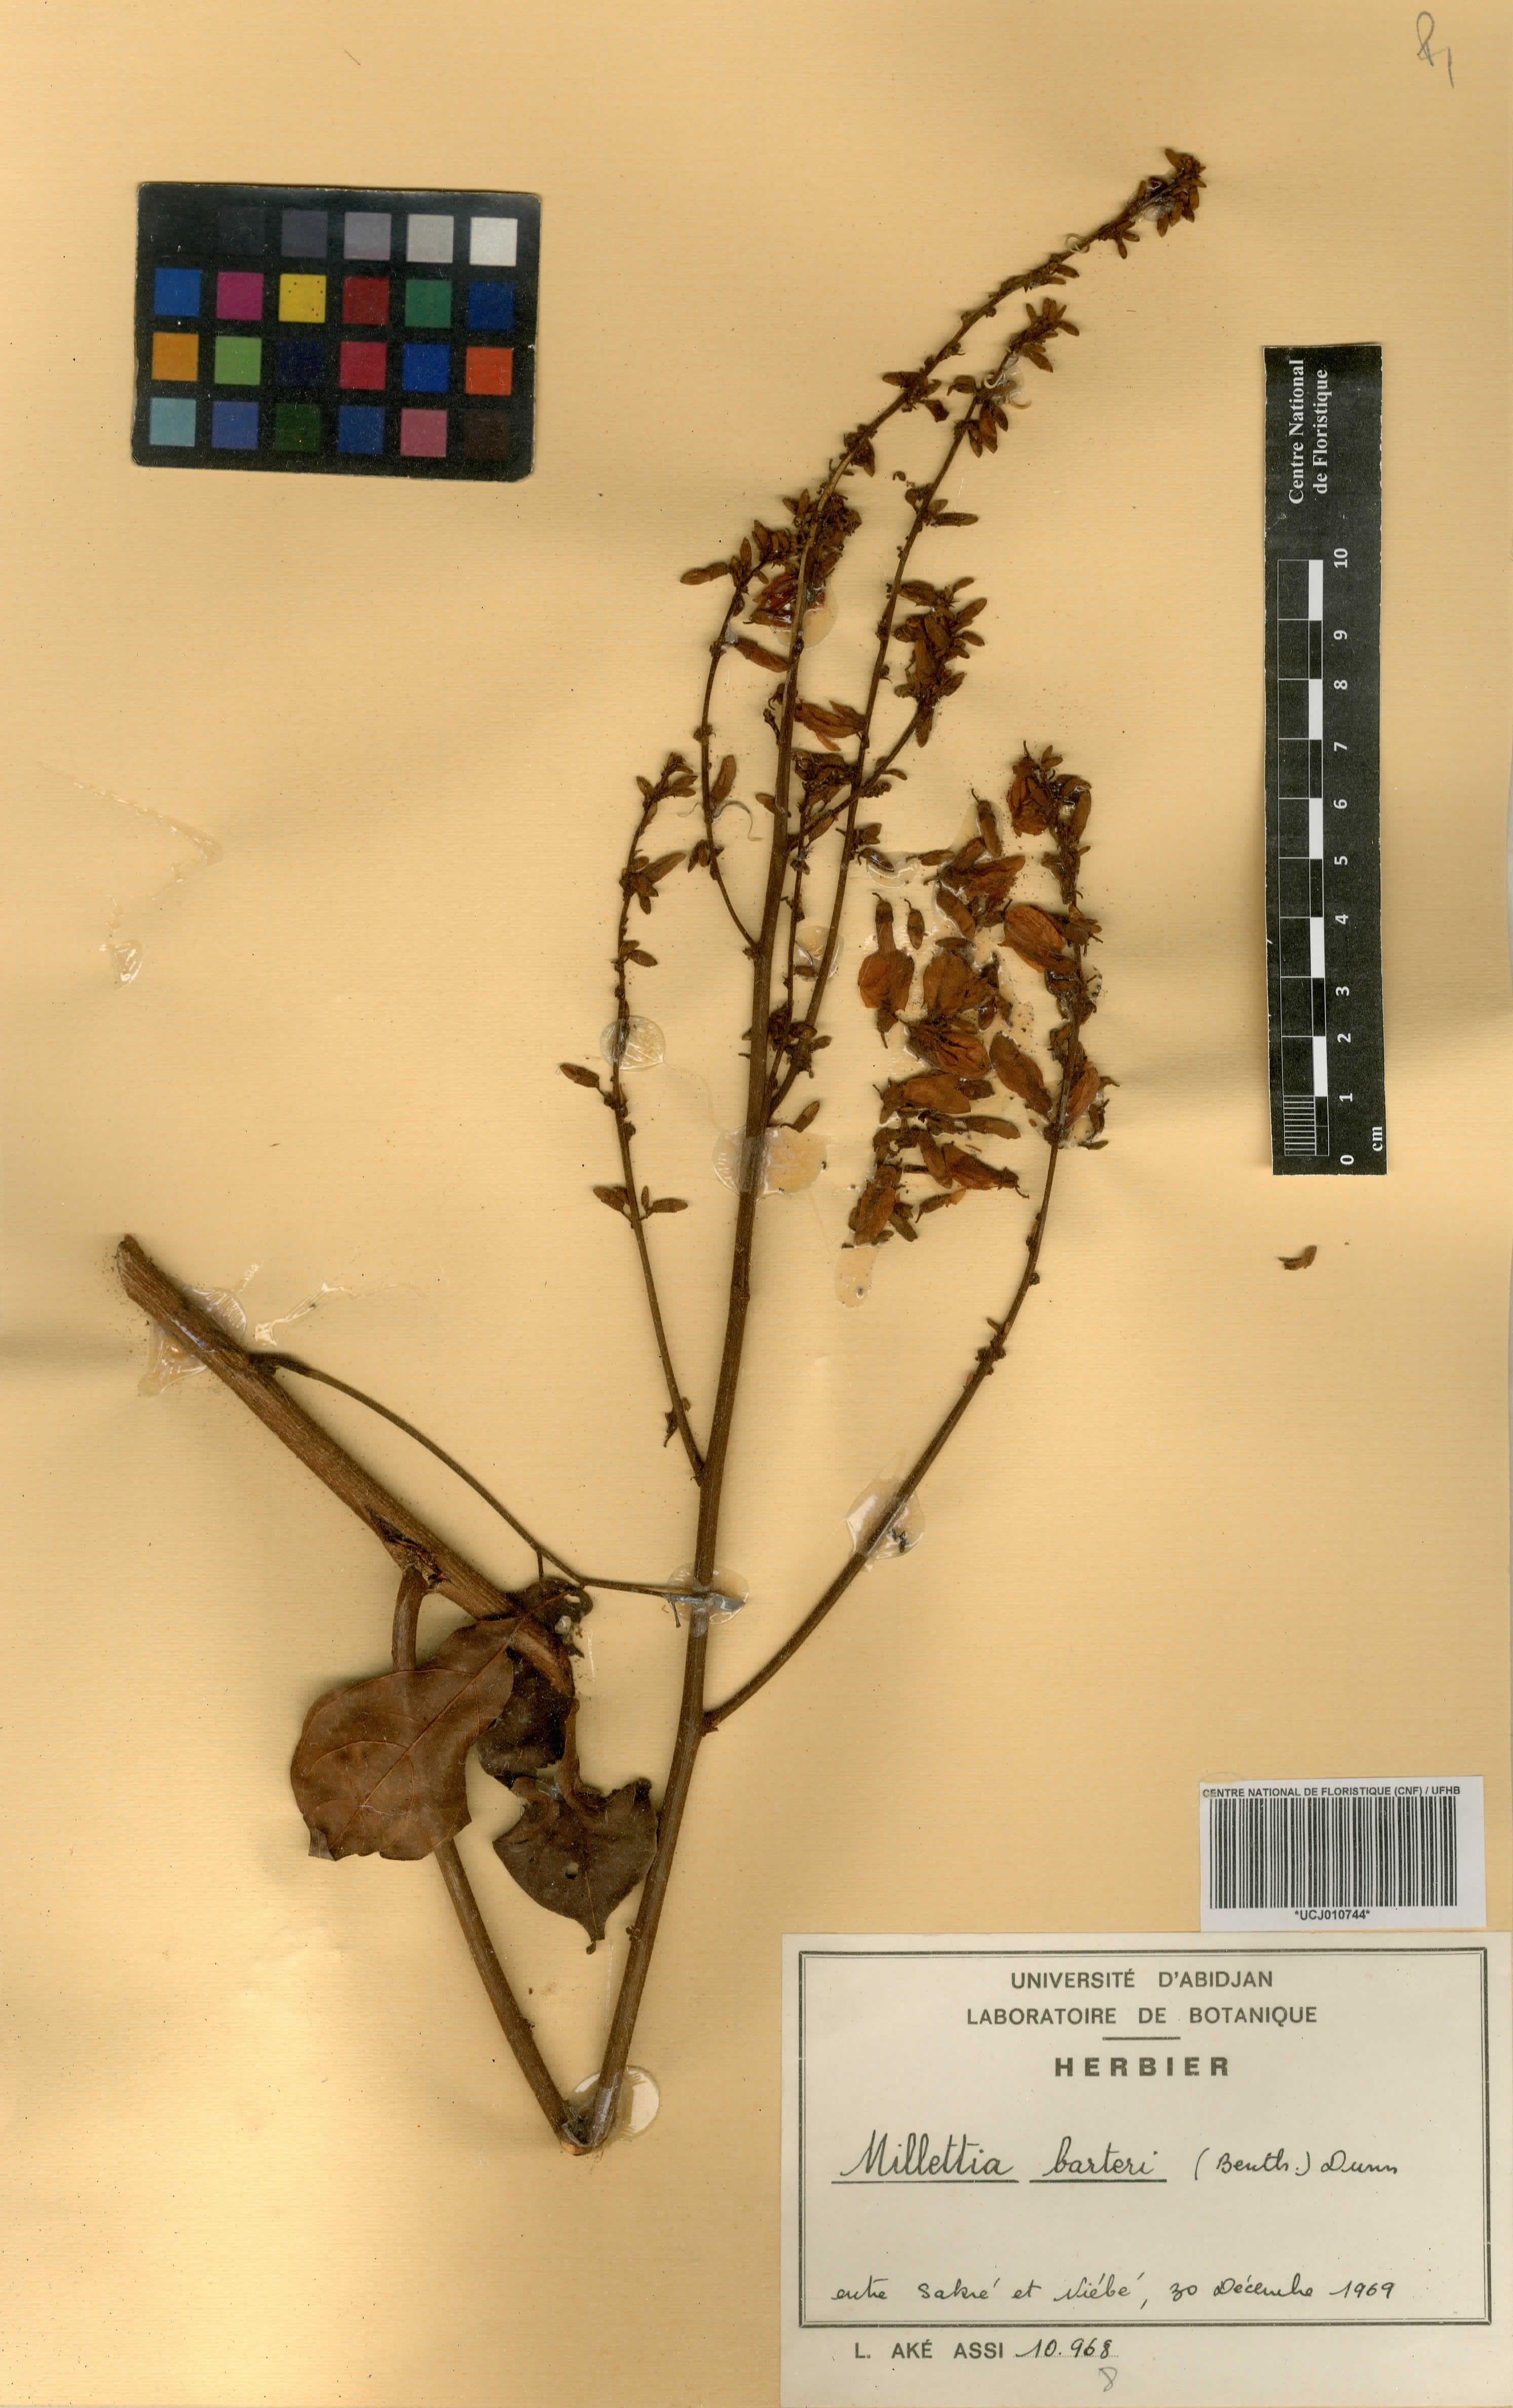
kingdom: Plantae
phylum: Tracheophyta
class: Magnoliopsida
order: Fabales
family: Fabaceae
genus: Millettia
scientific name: Millettia barteri
